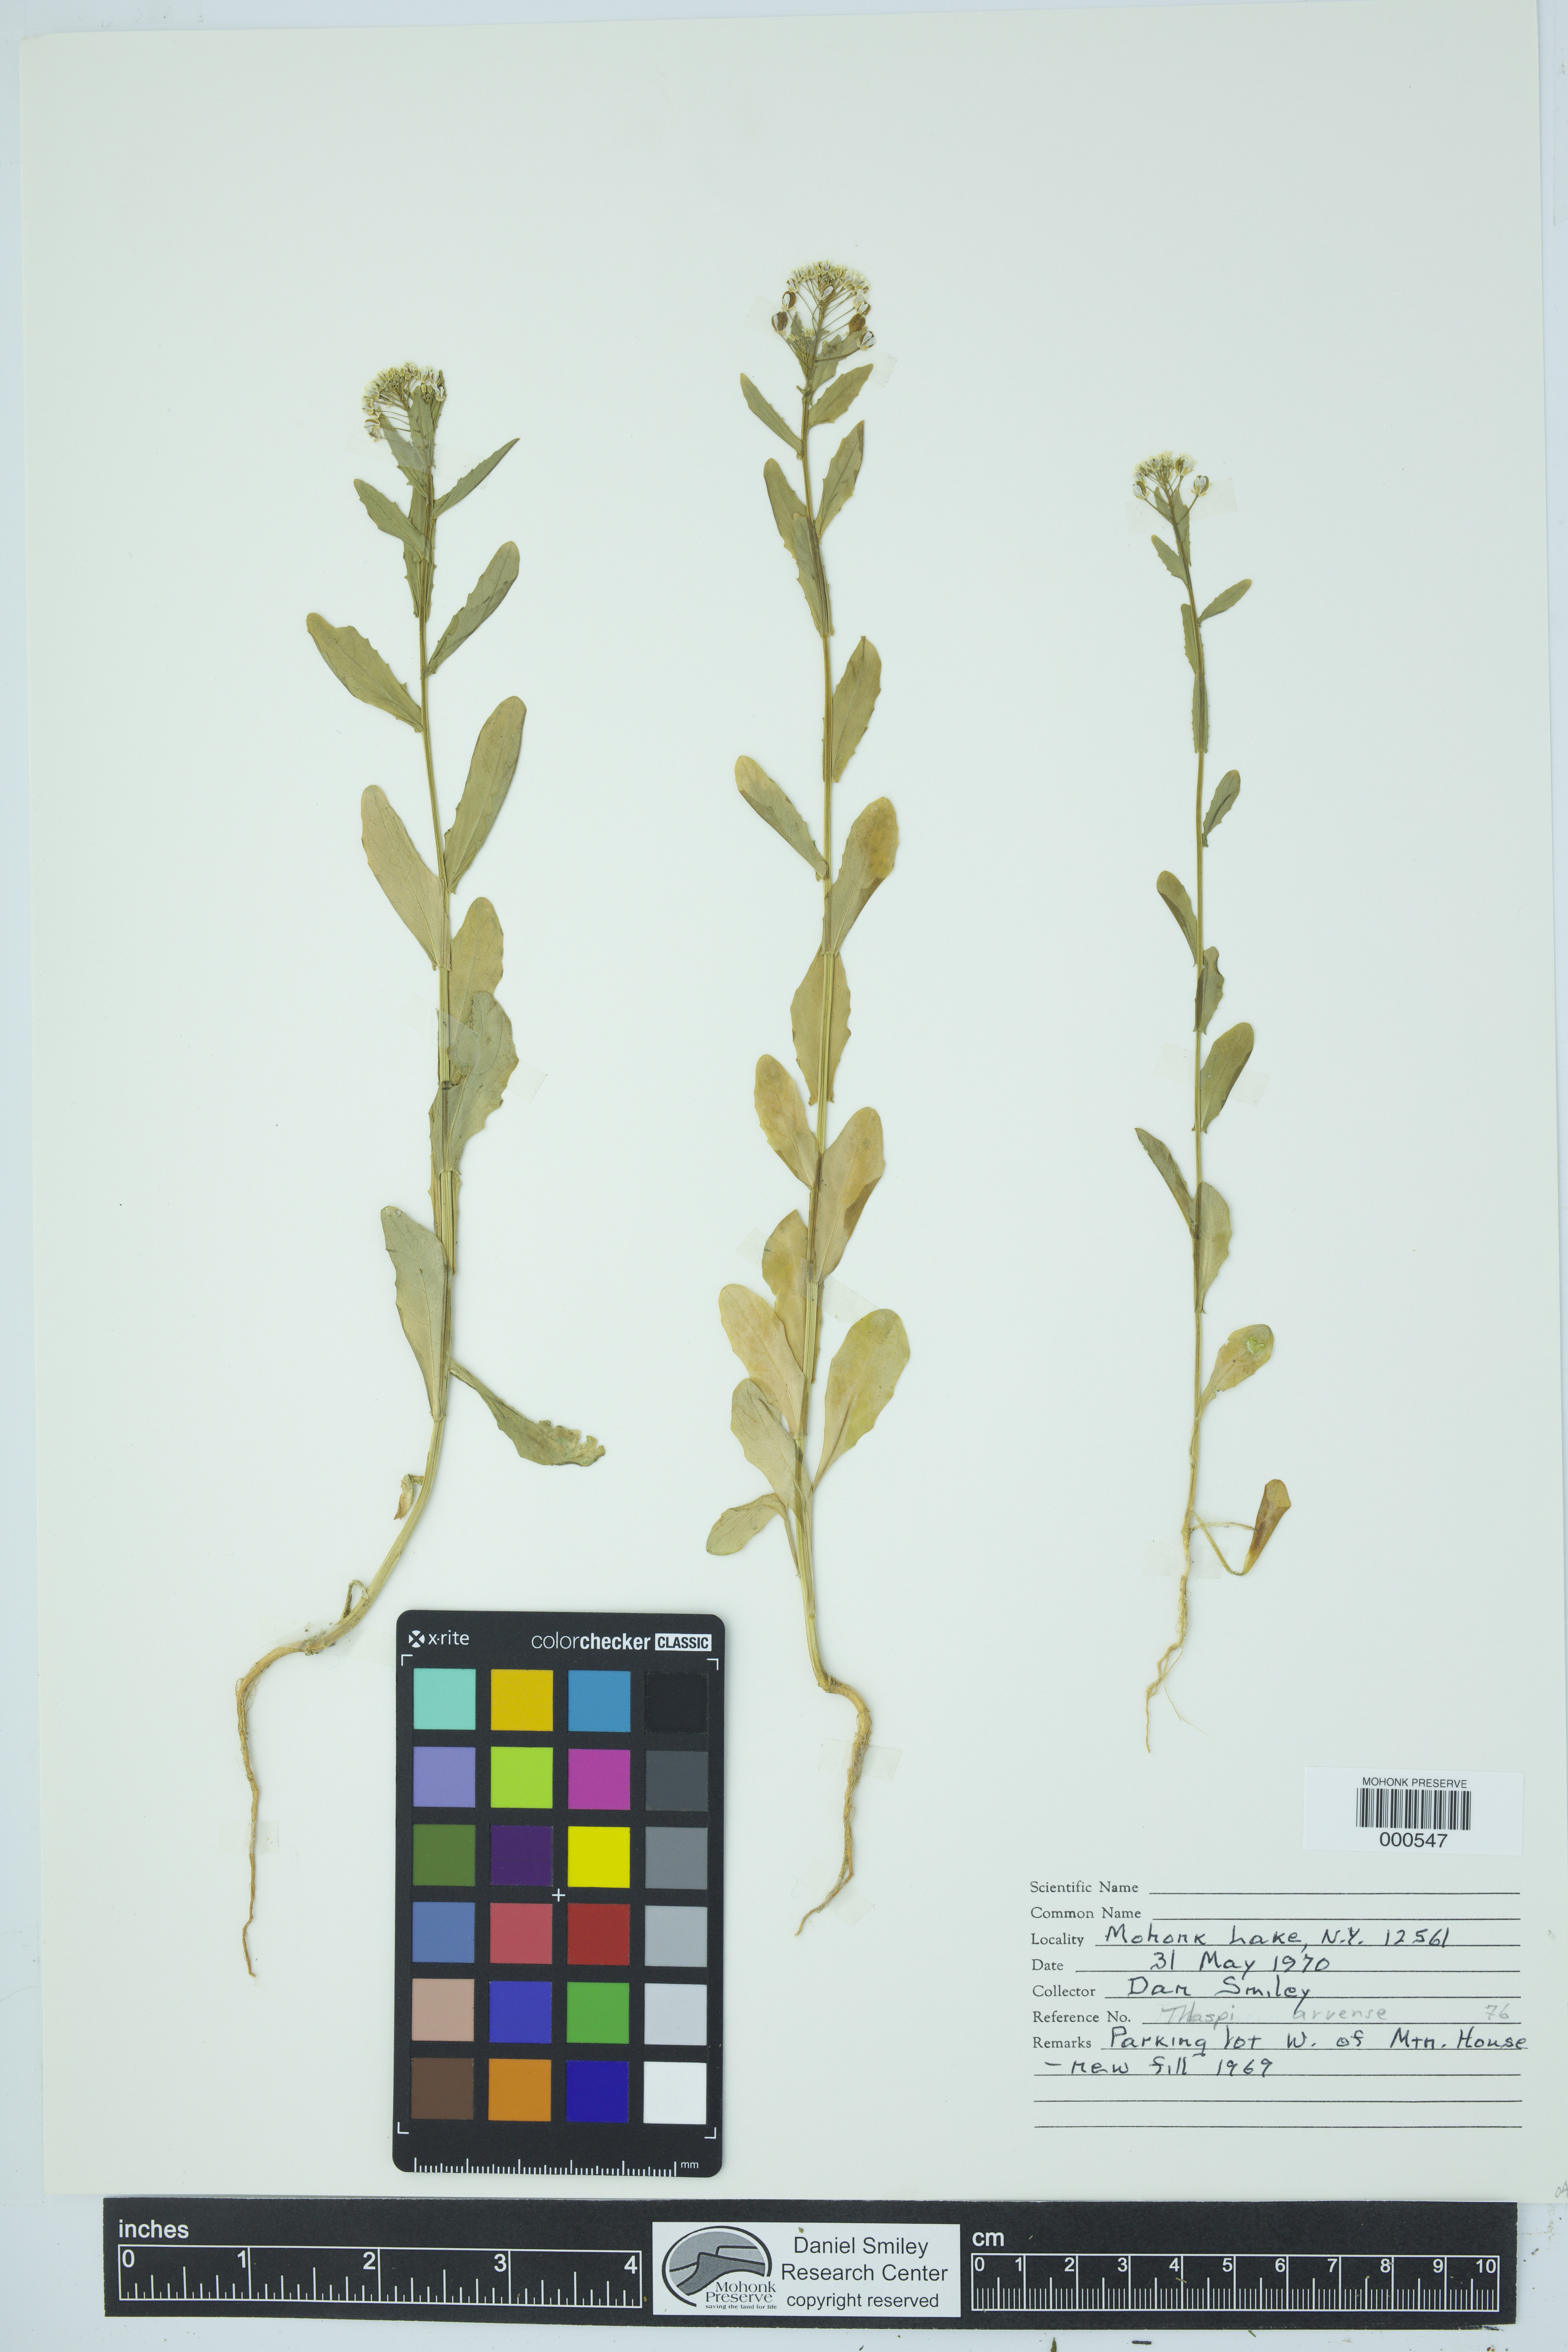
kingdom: Plantae
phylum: Tracheophyta
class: Magnoliopsida
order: Brassicales
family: Brassicaceae
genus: Thlaspi
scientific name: Thlaspi arvense
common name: Field pennycress
